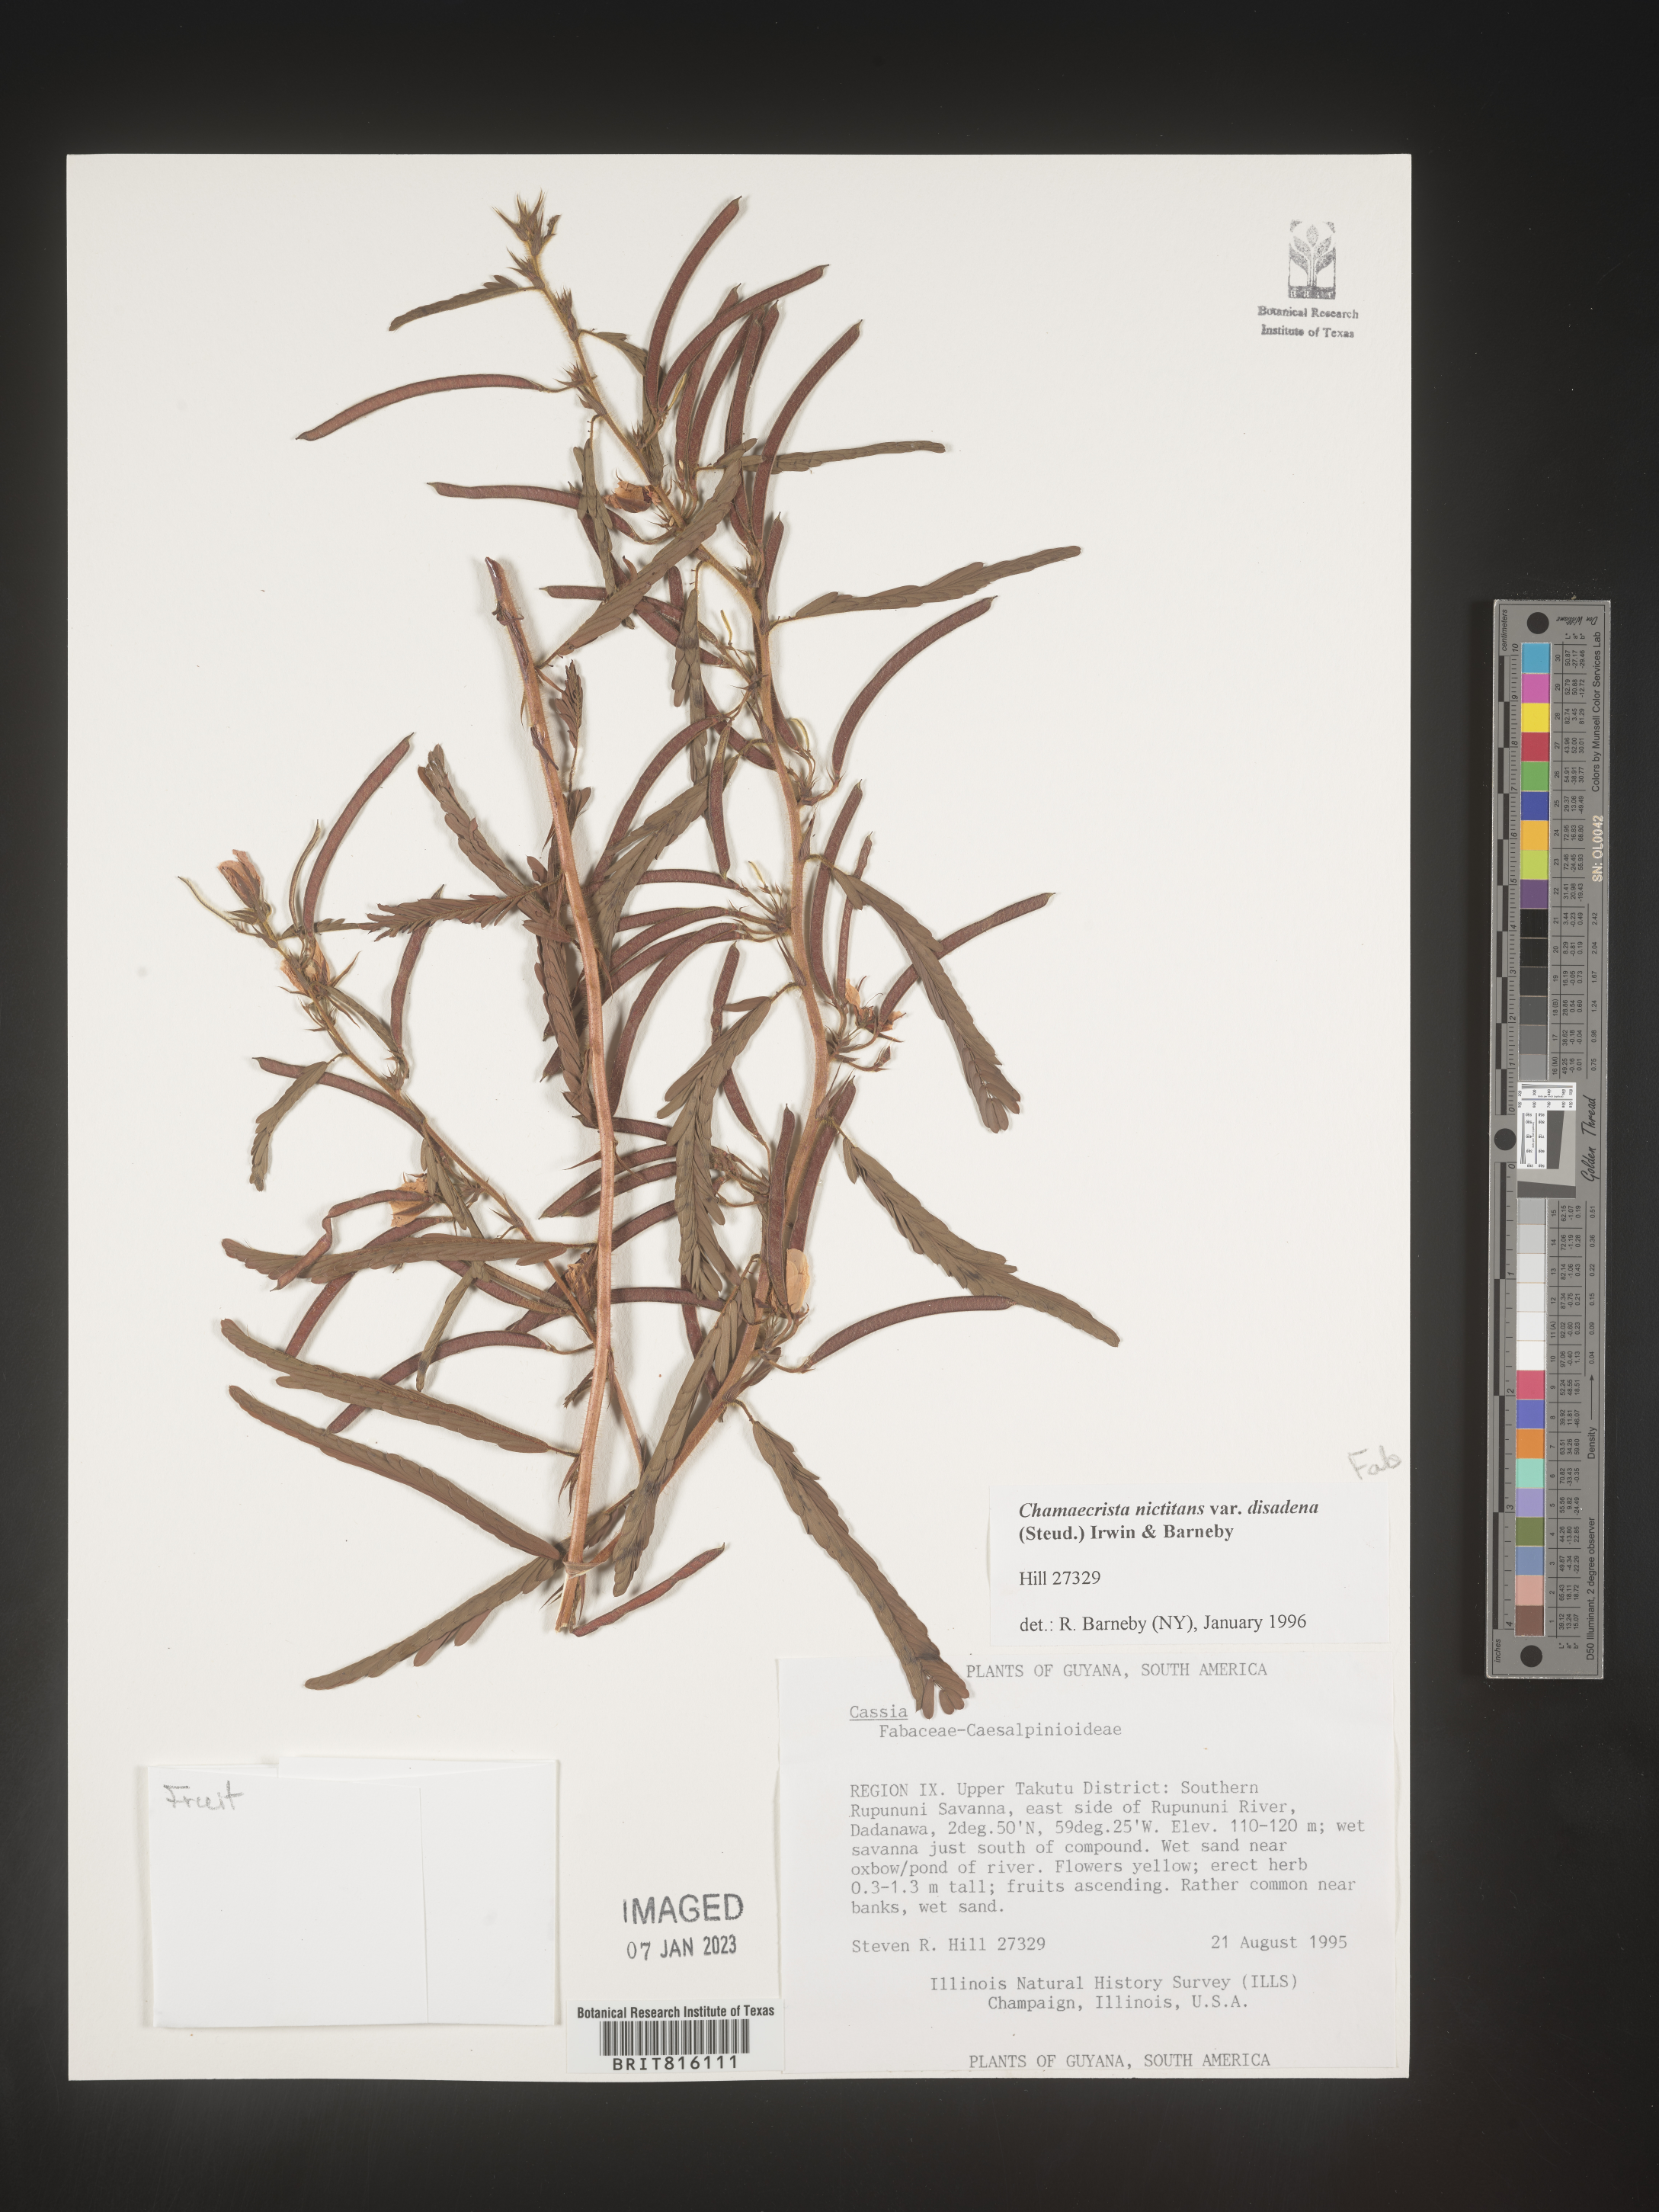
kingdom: Plantae
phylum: Tracheophyta
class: Magnoliopsida
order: Fabales
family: Fabaceae
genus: Chamaecrista
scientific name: Chamaecrista
